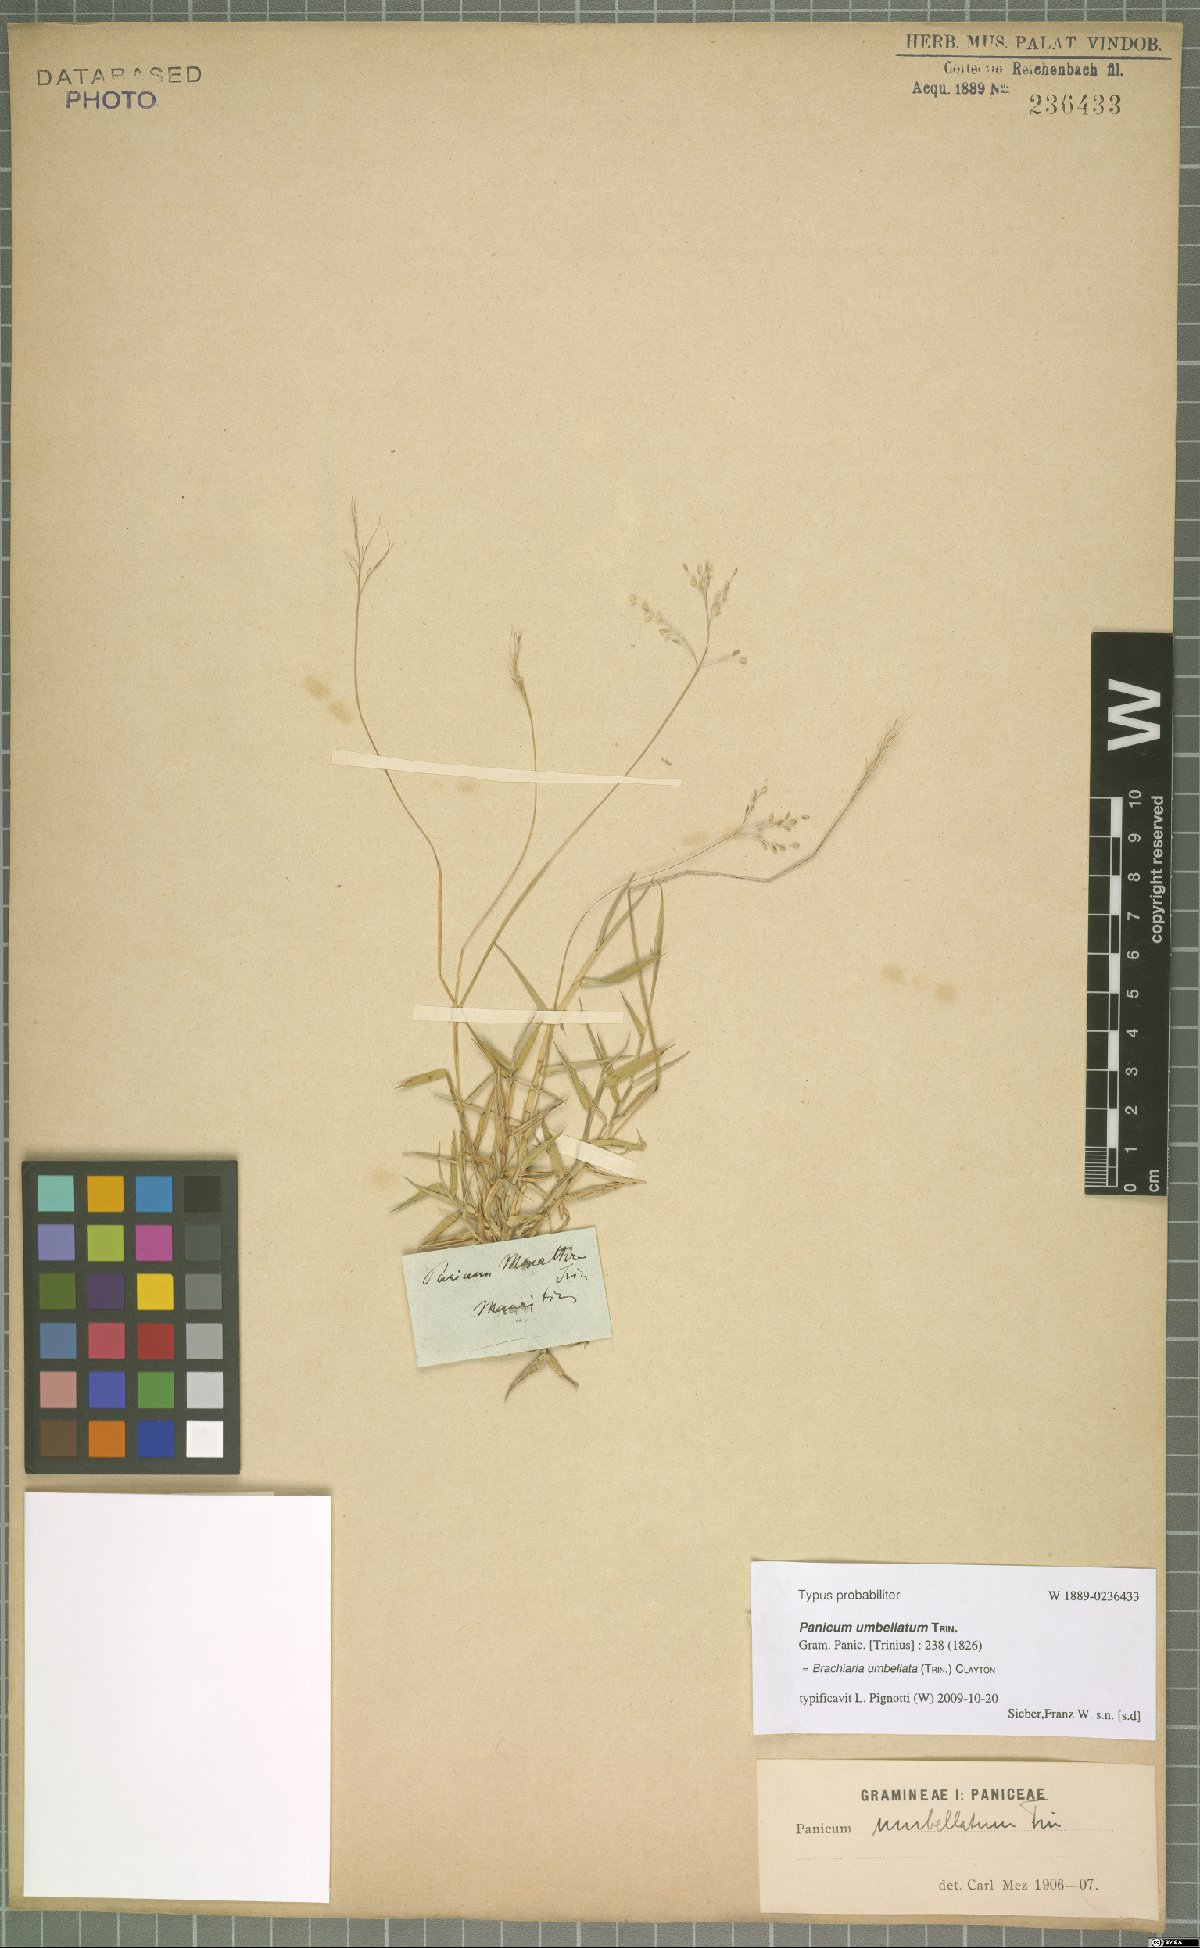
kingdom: Plantae
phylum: Tracheophyta
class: Liliopsida
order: Poales
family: Poaceae
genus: Urochloa
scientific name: Urochloa Brachiaria umbellata
